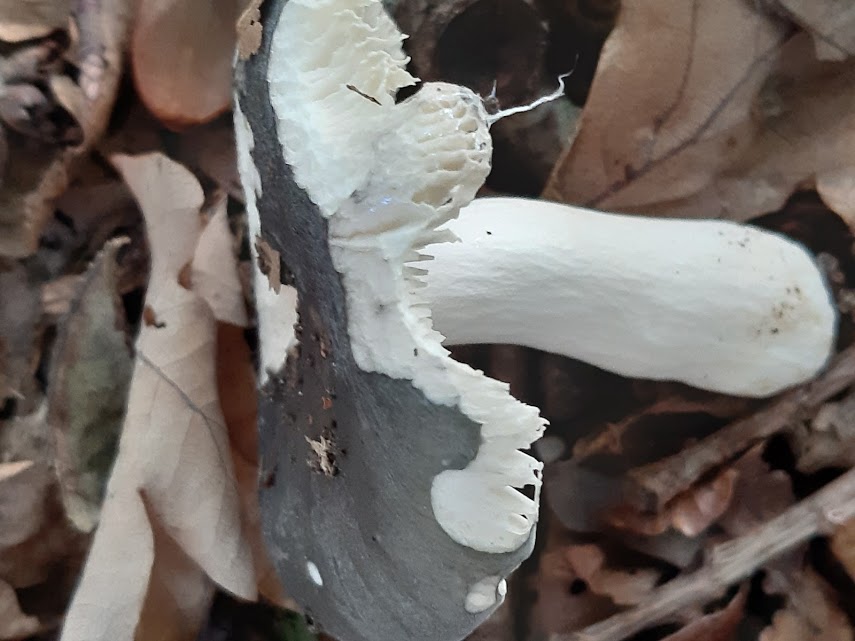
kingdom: Fungi
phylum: Basidiomycota
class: Agaricomycetes
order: Russulales
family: Russulaceae
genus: Russula
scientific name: Russula
